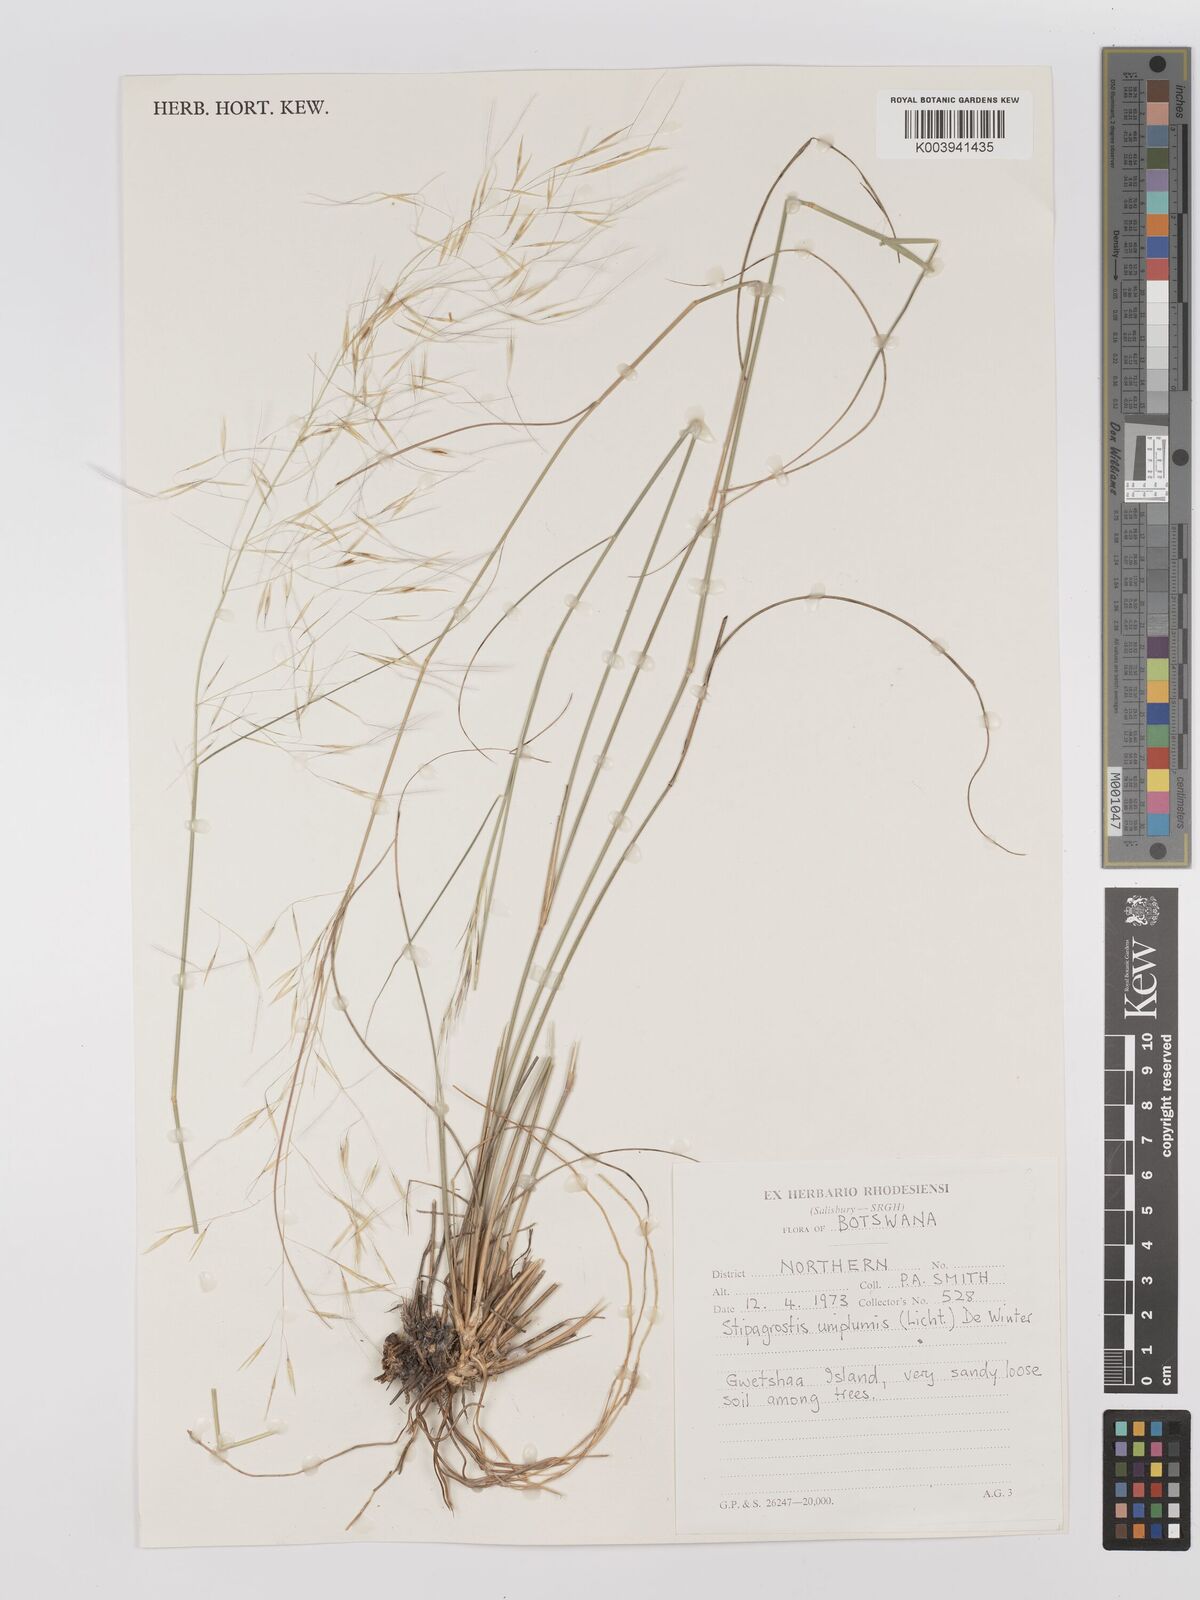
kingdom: Plantae
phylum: Tracheophyta
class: Liliopsida
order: Poales
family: Poaceae
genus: Stipagrostis
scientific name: Stipagrostis uniplumis
